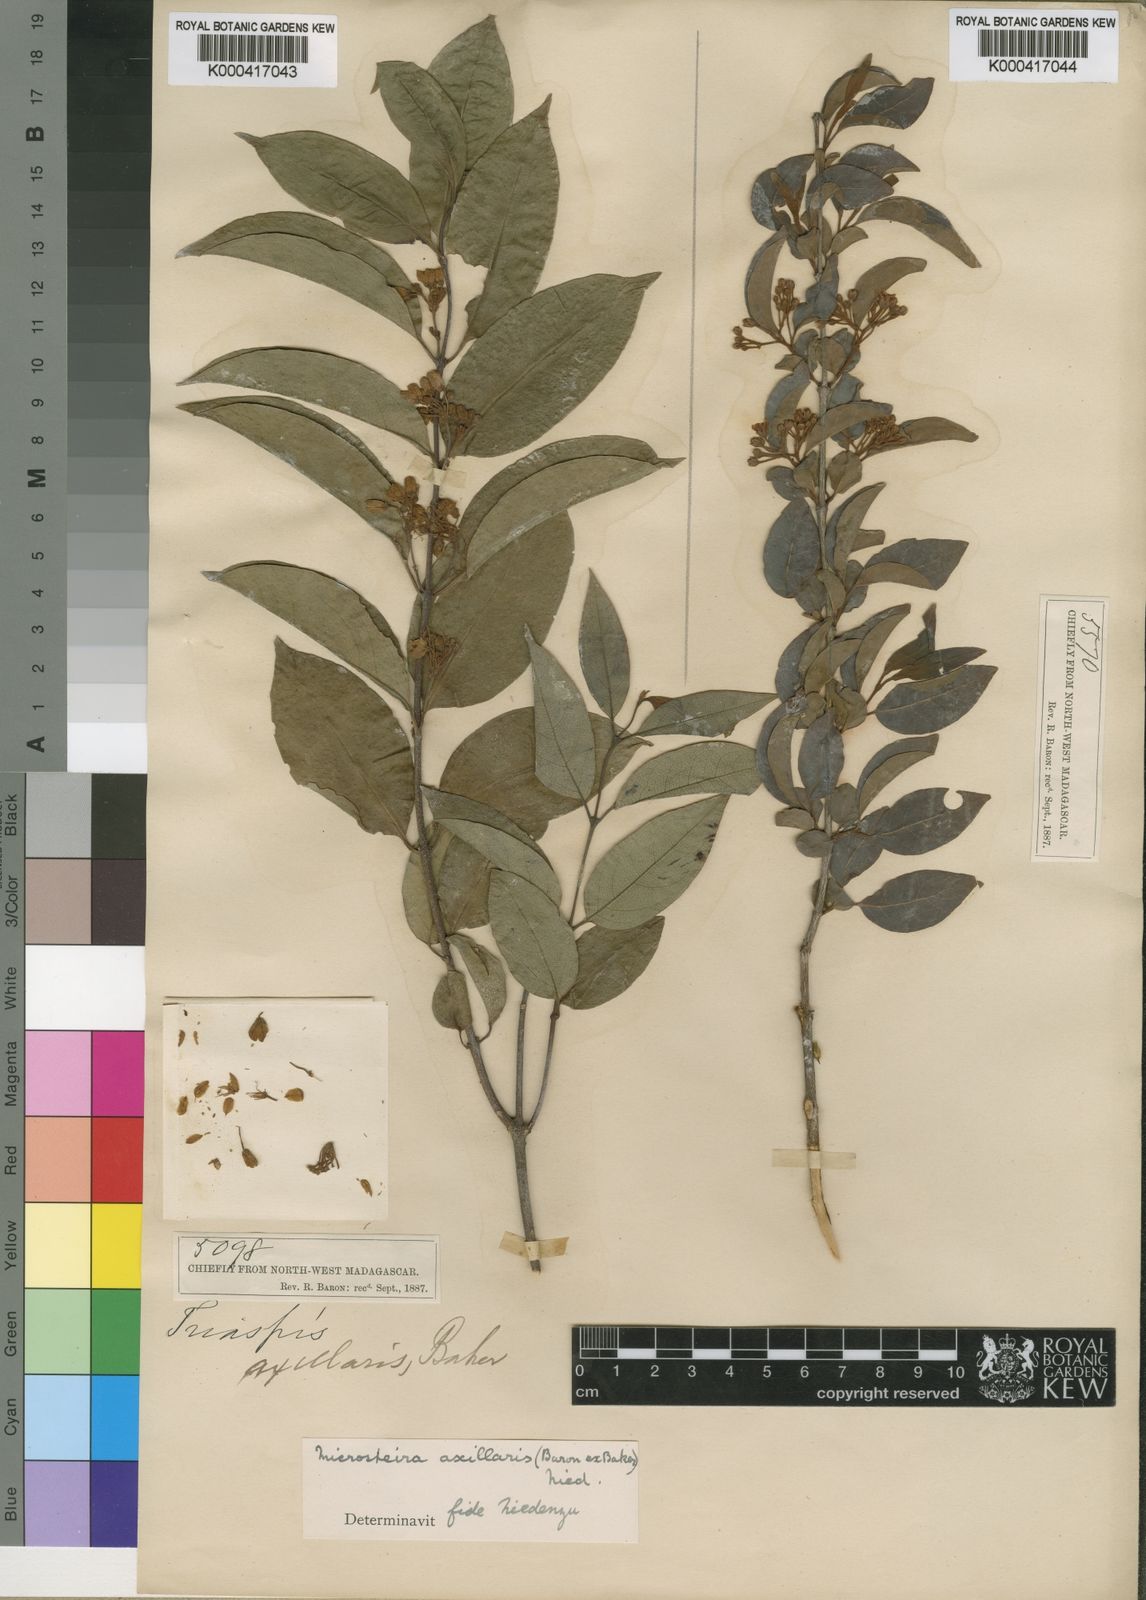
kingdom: Plantae
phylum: Tracheophyta
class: Magnoliopsida
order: Malpighiales
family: Malpighiaceae
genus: Microsteira
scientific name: Microsteira axillaris
